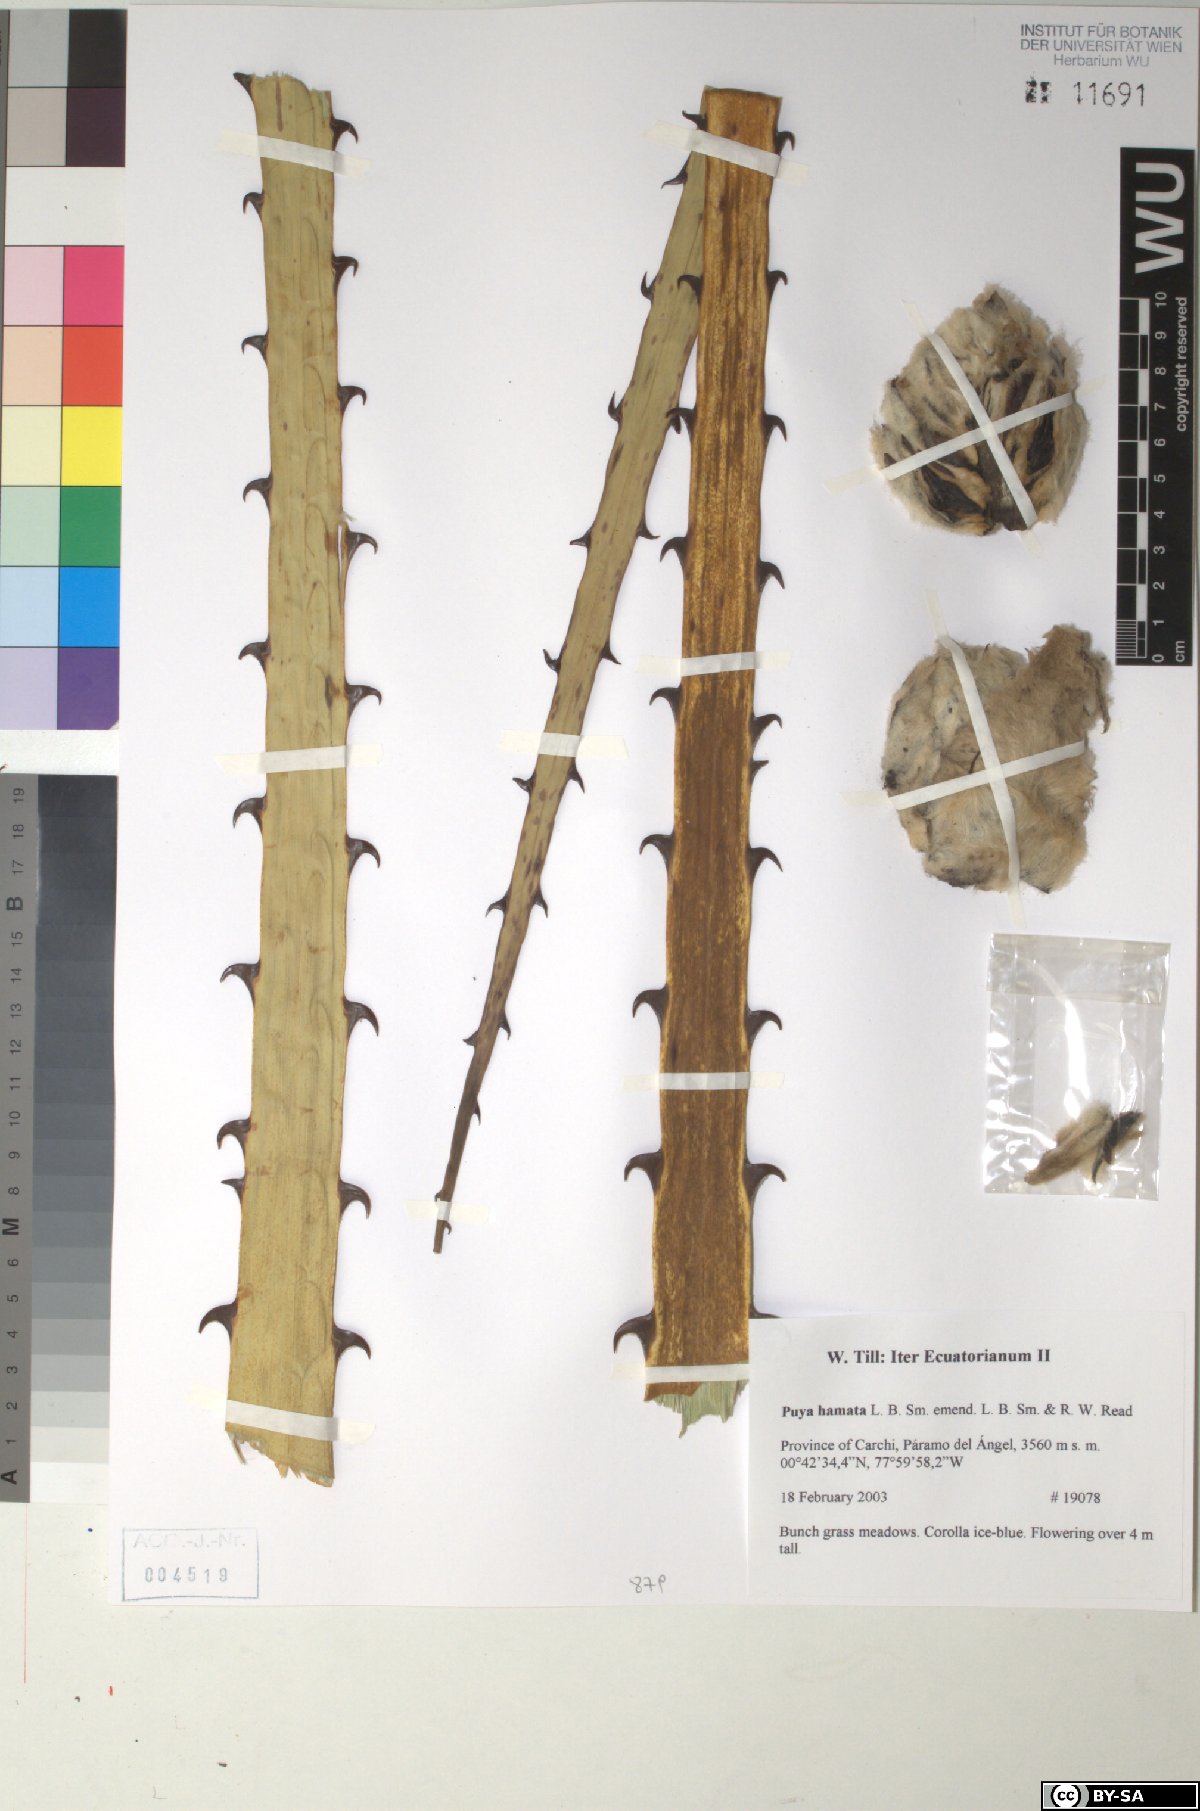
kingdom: Plantae
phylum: Tracheophyta
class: Liliopsida
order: Poales
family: Bromeliaceae
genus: Puya
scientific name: Puya hamata
